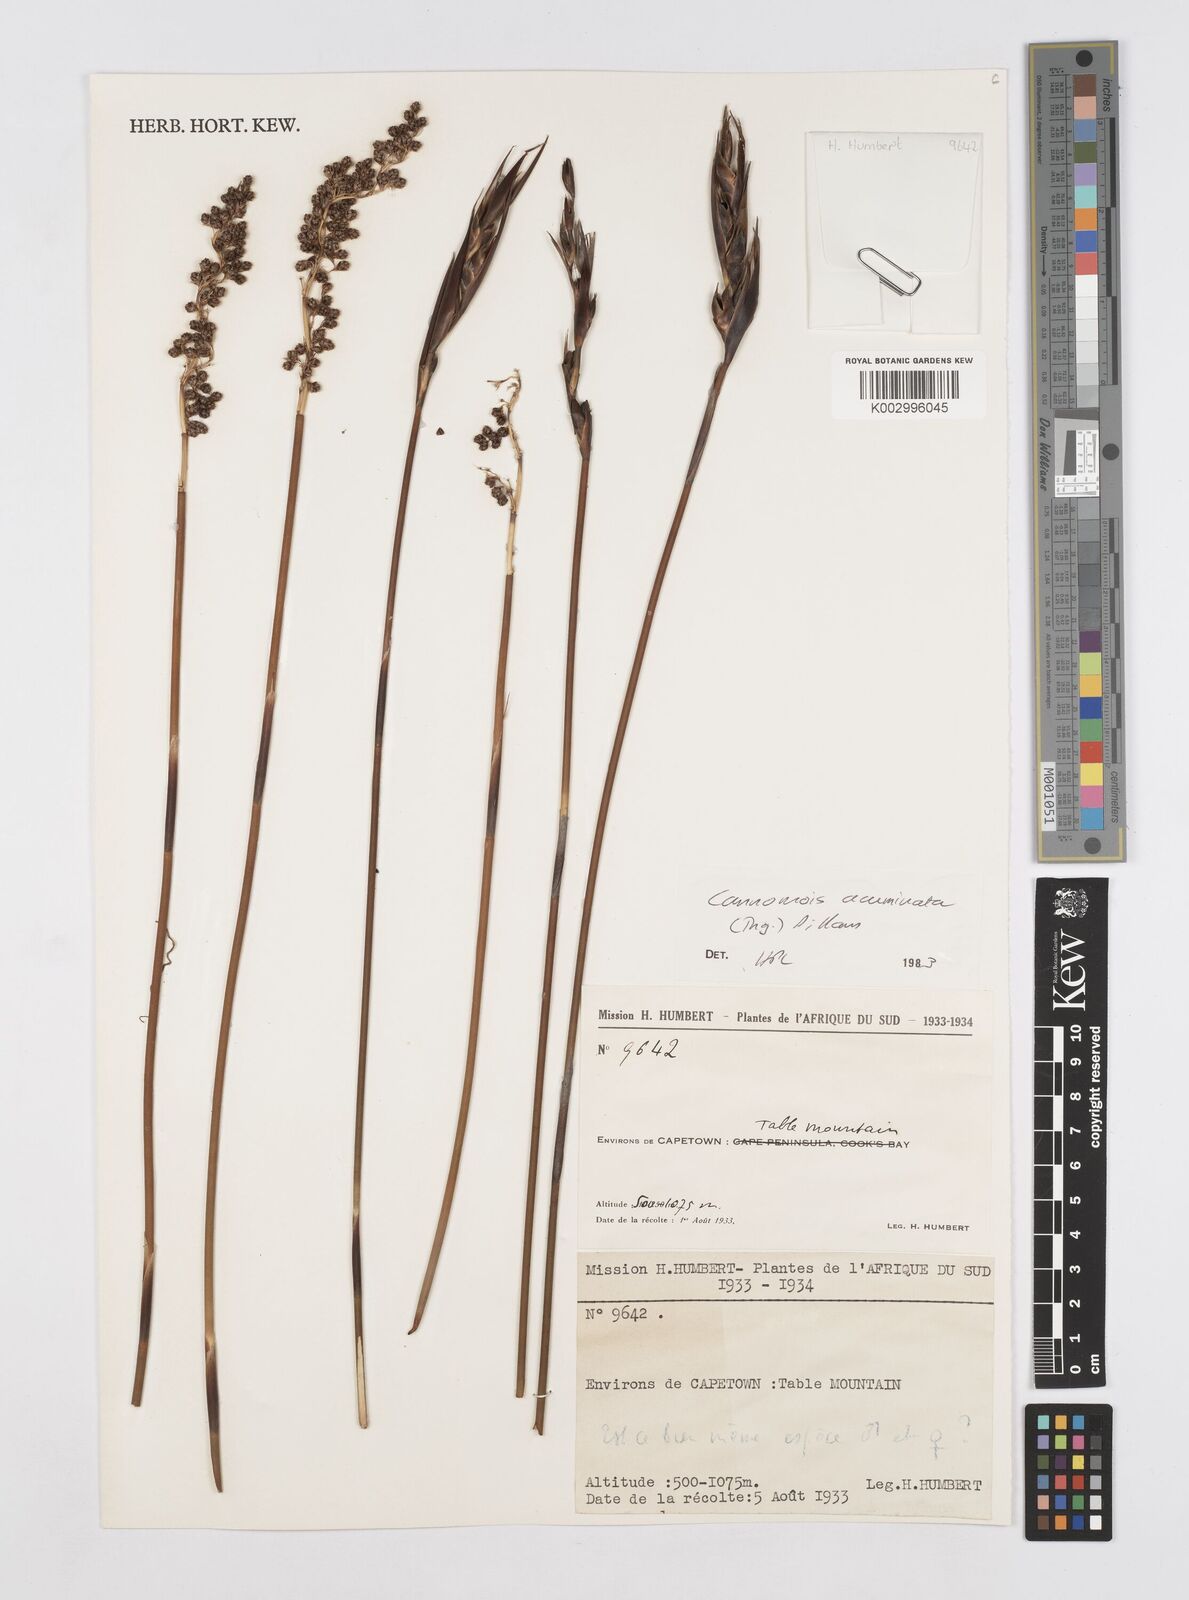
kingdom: Plantae
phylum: Tracheophyta
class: Liliopsida
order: Poales
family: Restionaceae
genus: Cannomois
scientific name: Cannomois parviflora
